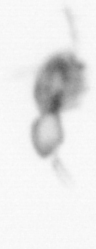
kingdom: Animalia
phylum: Arthropoda
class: Copepoda
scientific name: Copepoda
